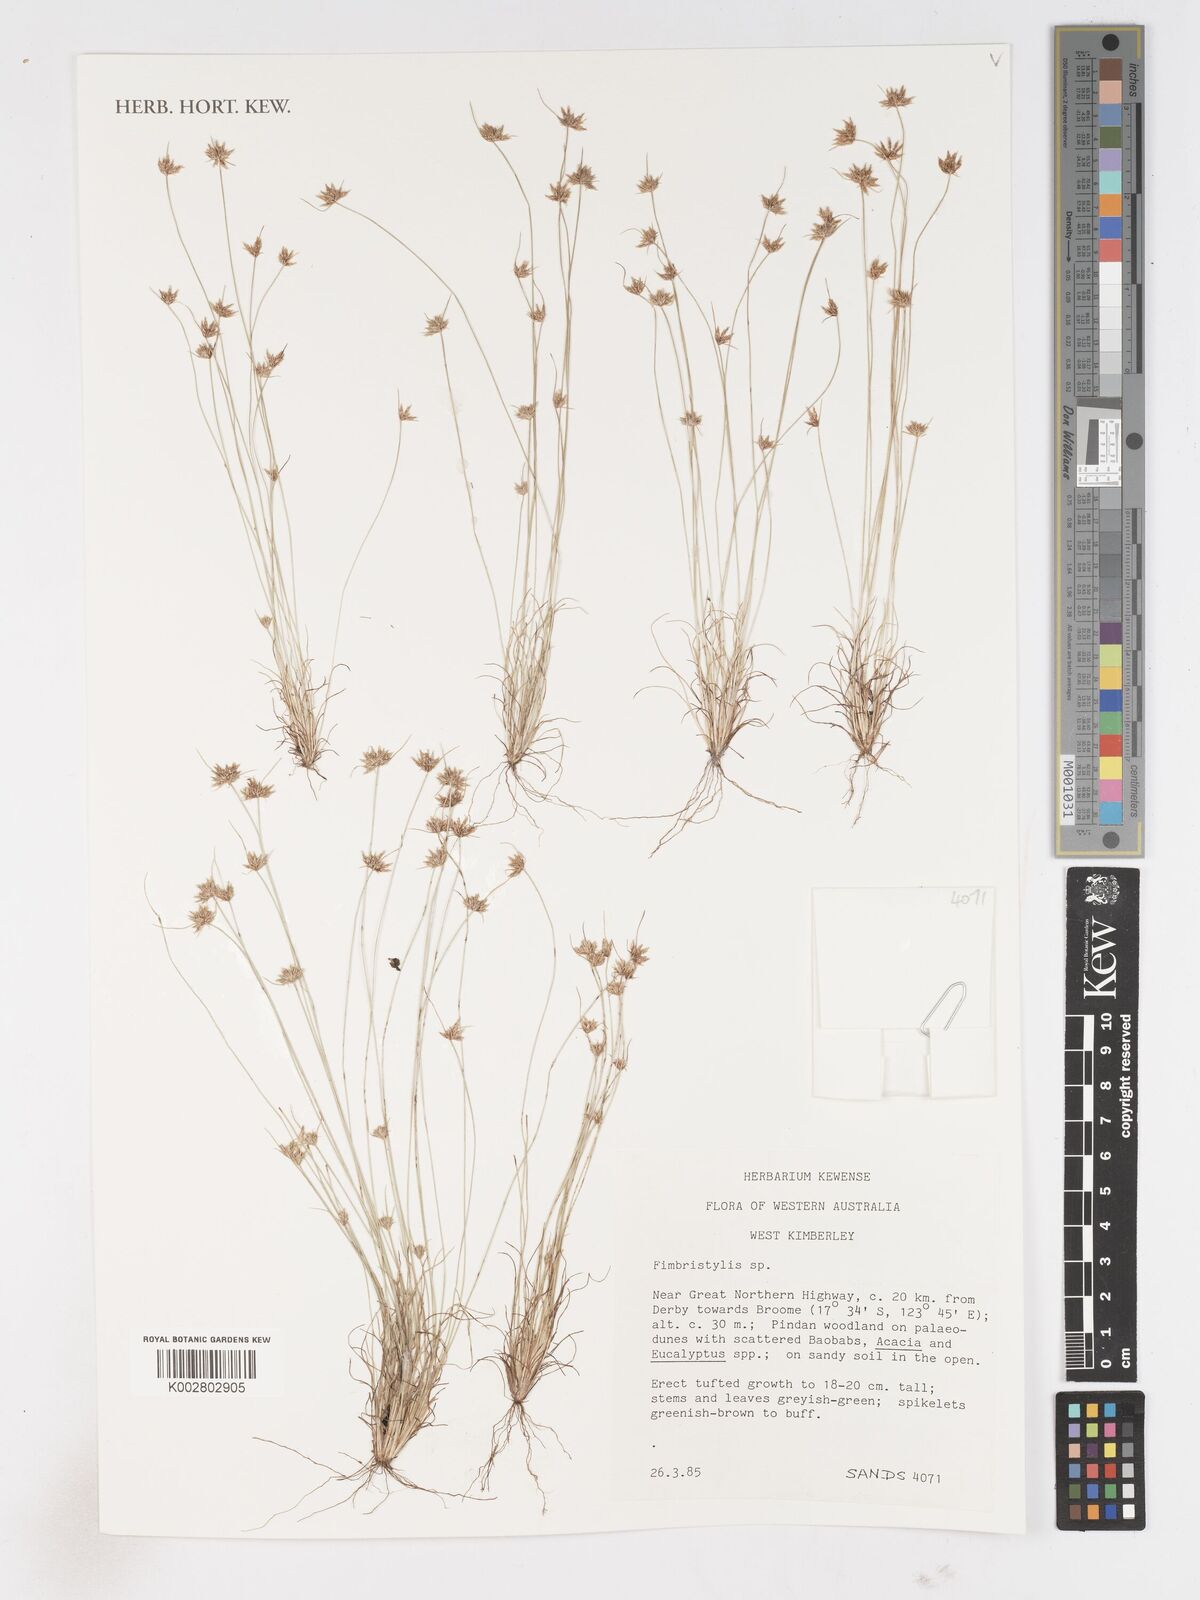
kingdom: Plantae
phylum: Tracheophyta
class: Liliopsida
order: Poales
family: Cyperaceae
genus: Fimbristylis
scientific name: Fimbristylis
